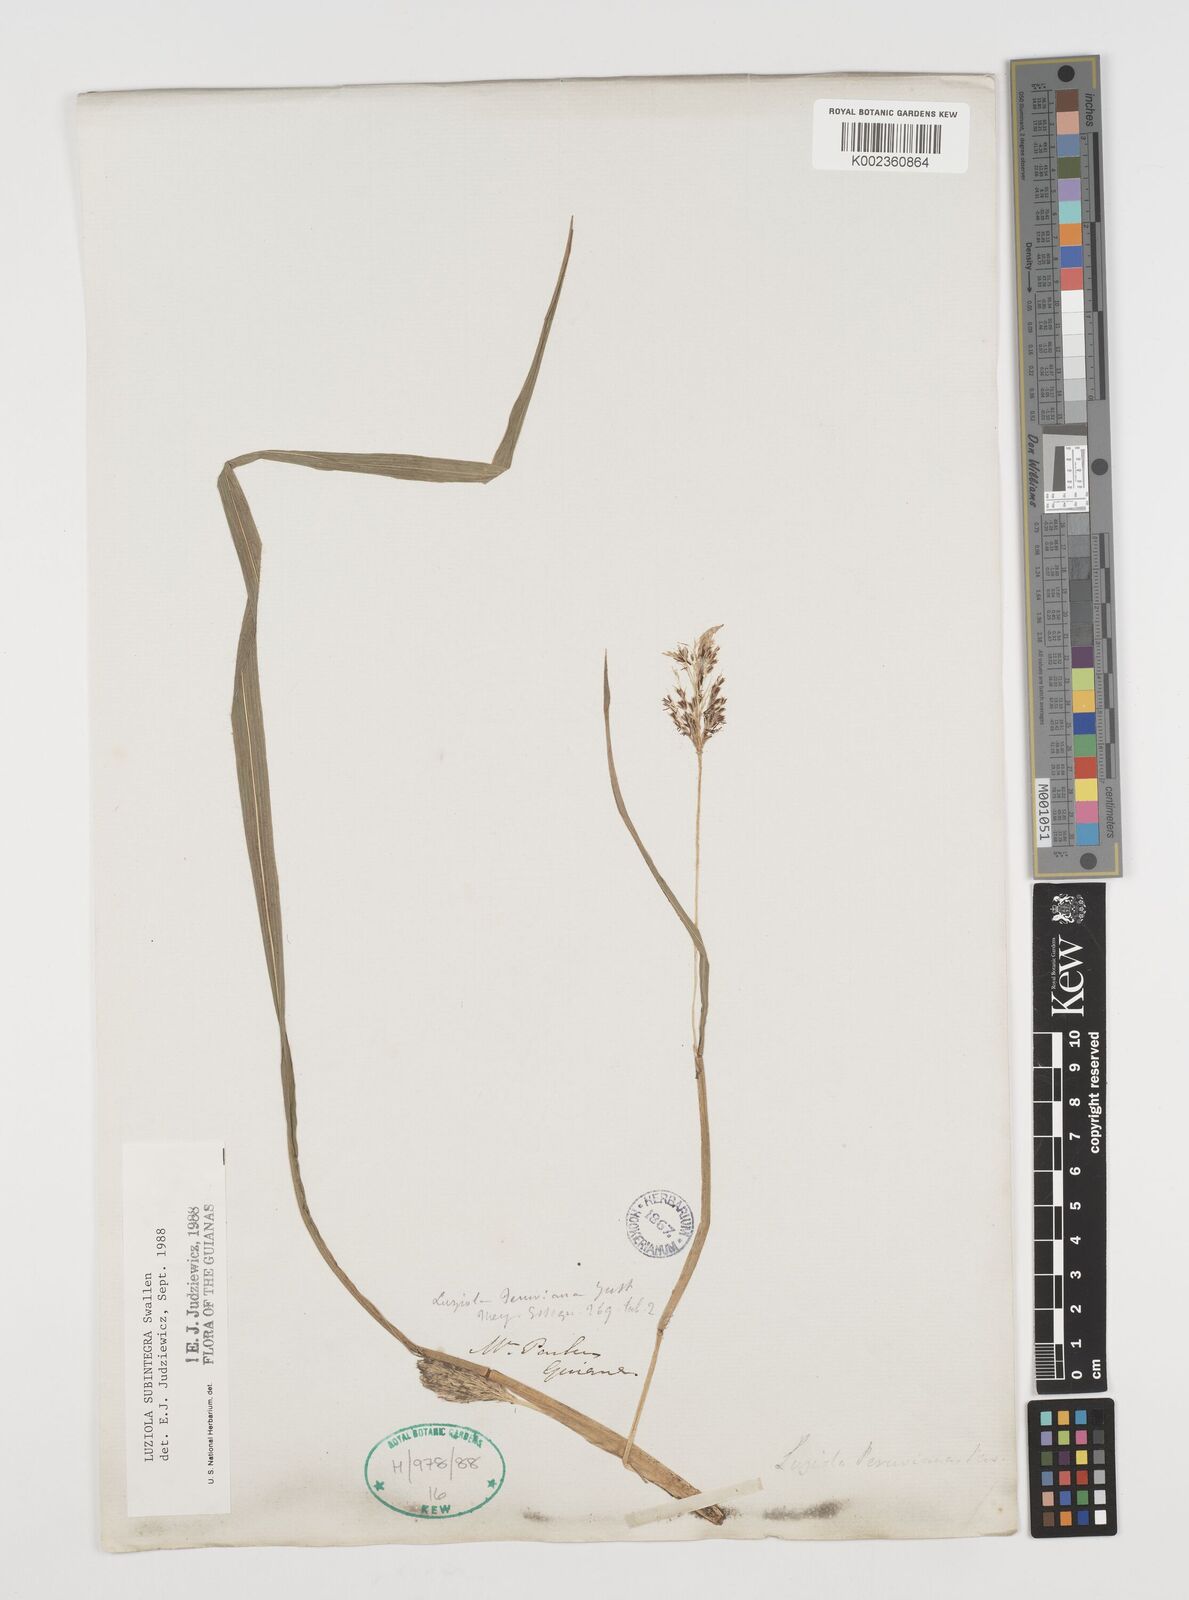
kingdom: Plantae
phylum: Tracheophyta
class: Liliopsida
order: Poales
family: Poaceae
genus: Luziola
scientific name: Luziola subintegra
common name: Large watergrass
